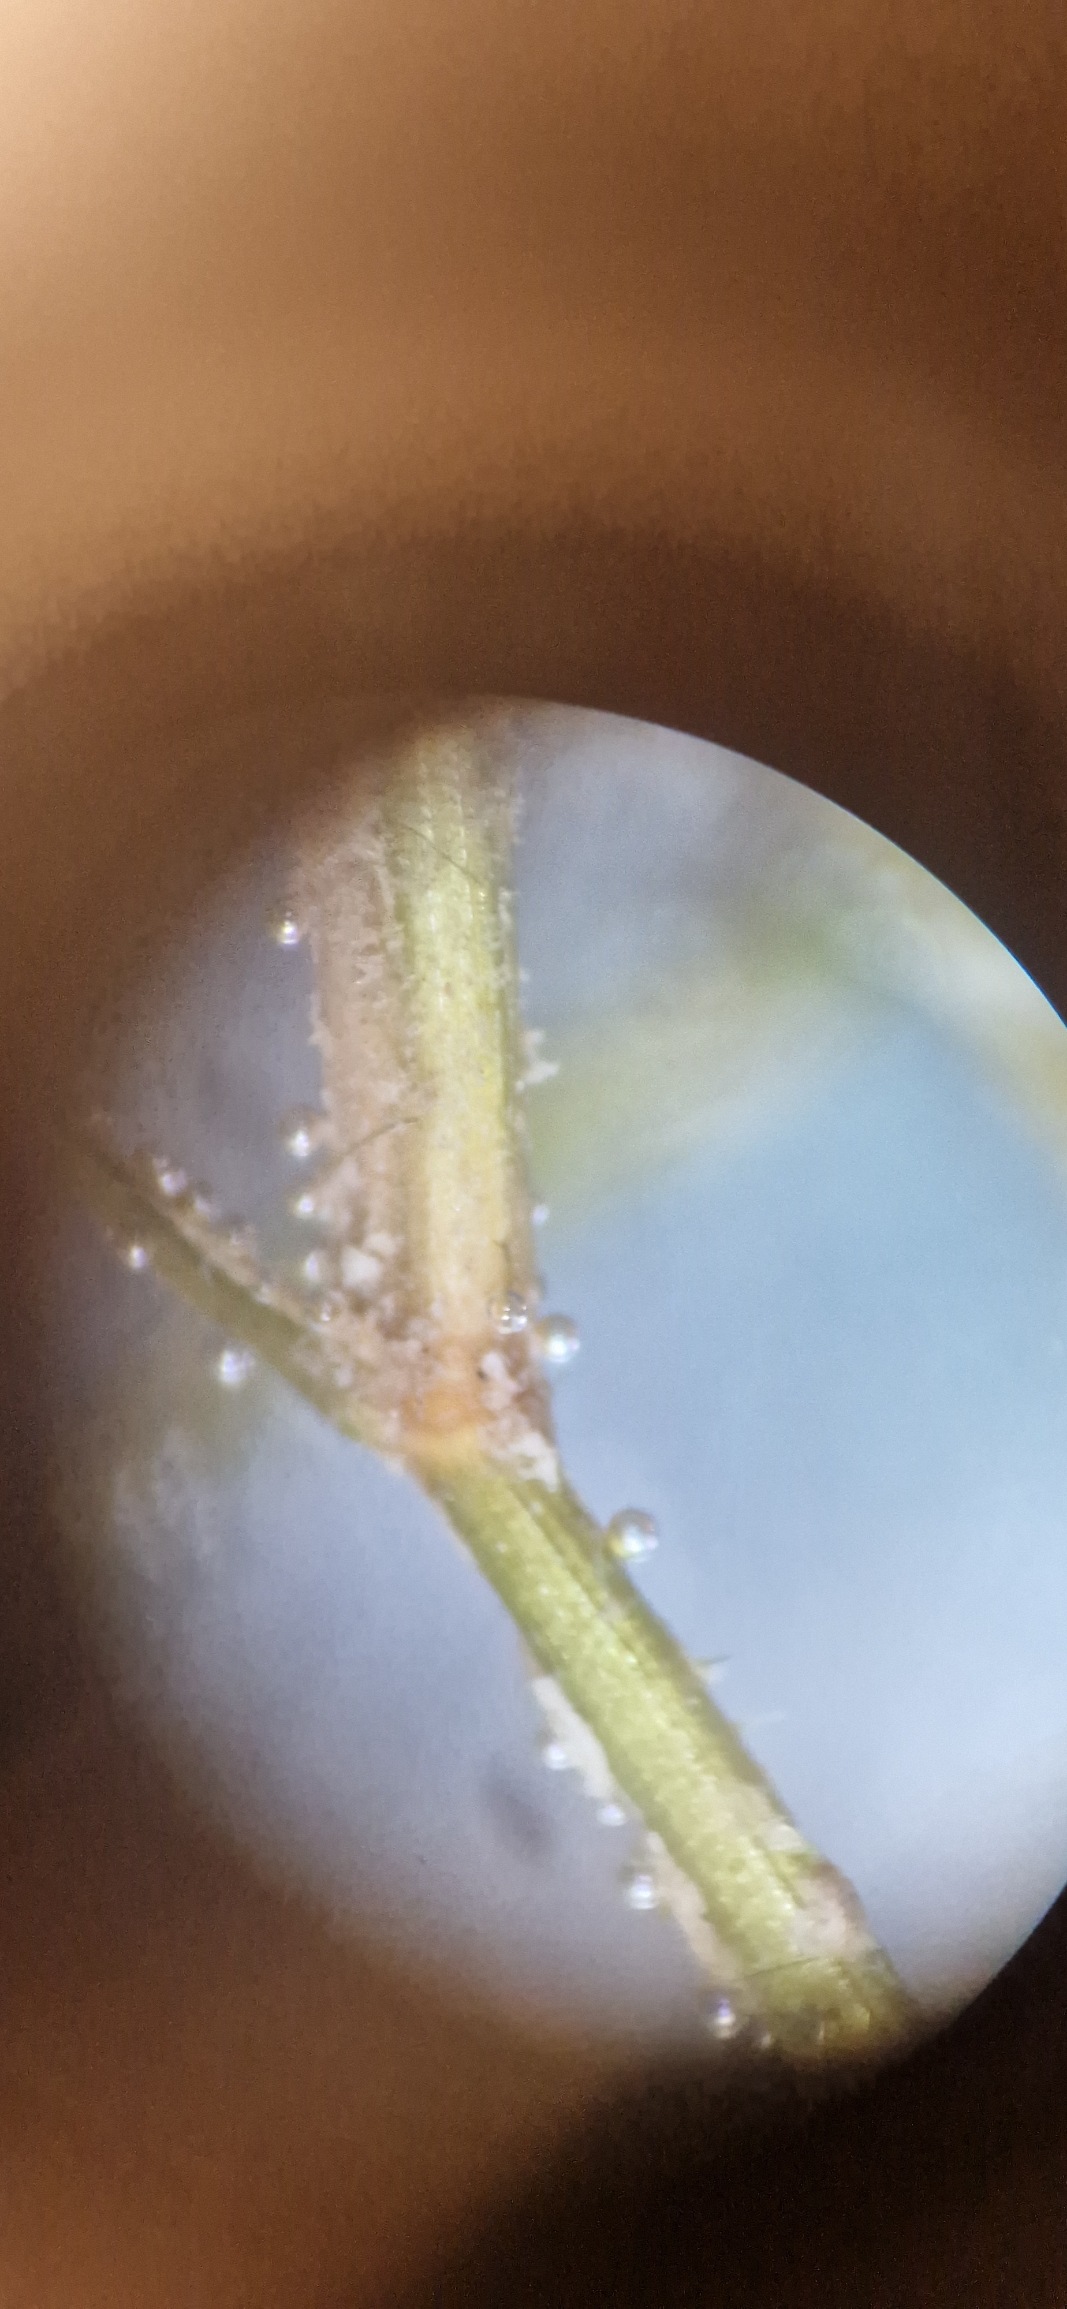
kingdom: Plantae
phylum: Tracheophyta
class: Liliopsida
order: Alismatales
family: Potamogetonaceae
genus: Potamogeton
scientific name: Potamogeton berchtoldii
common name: Liden vandaks
